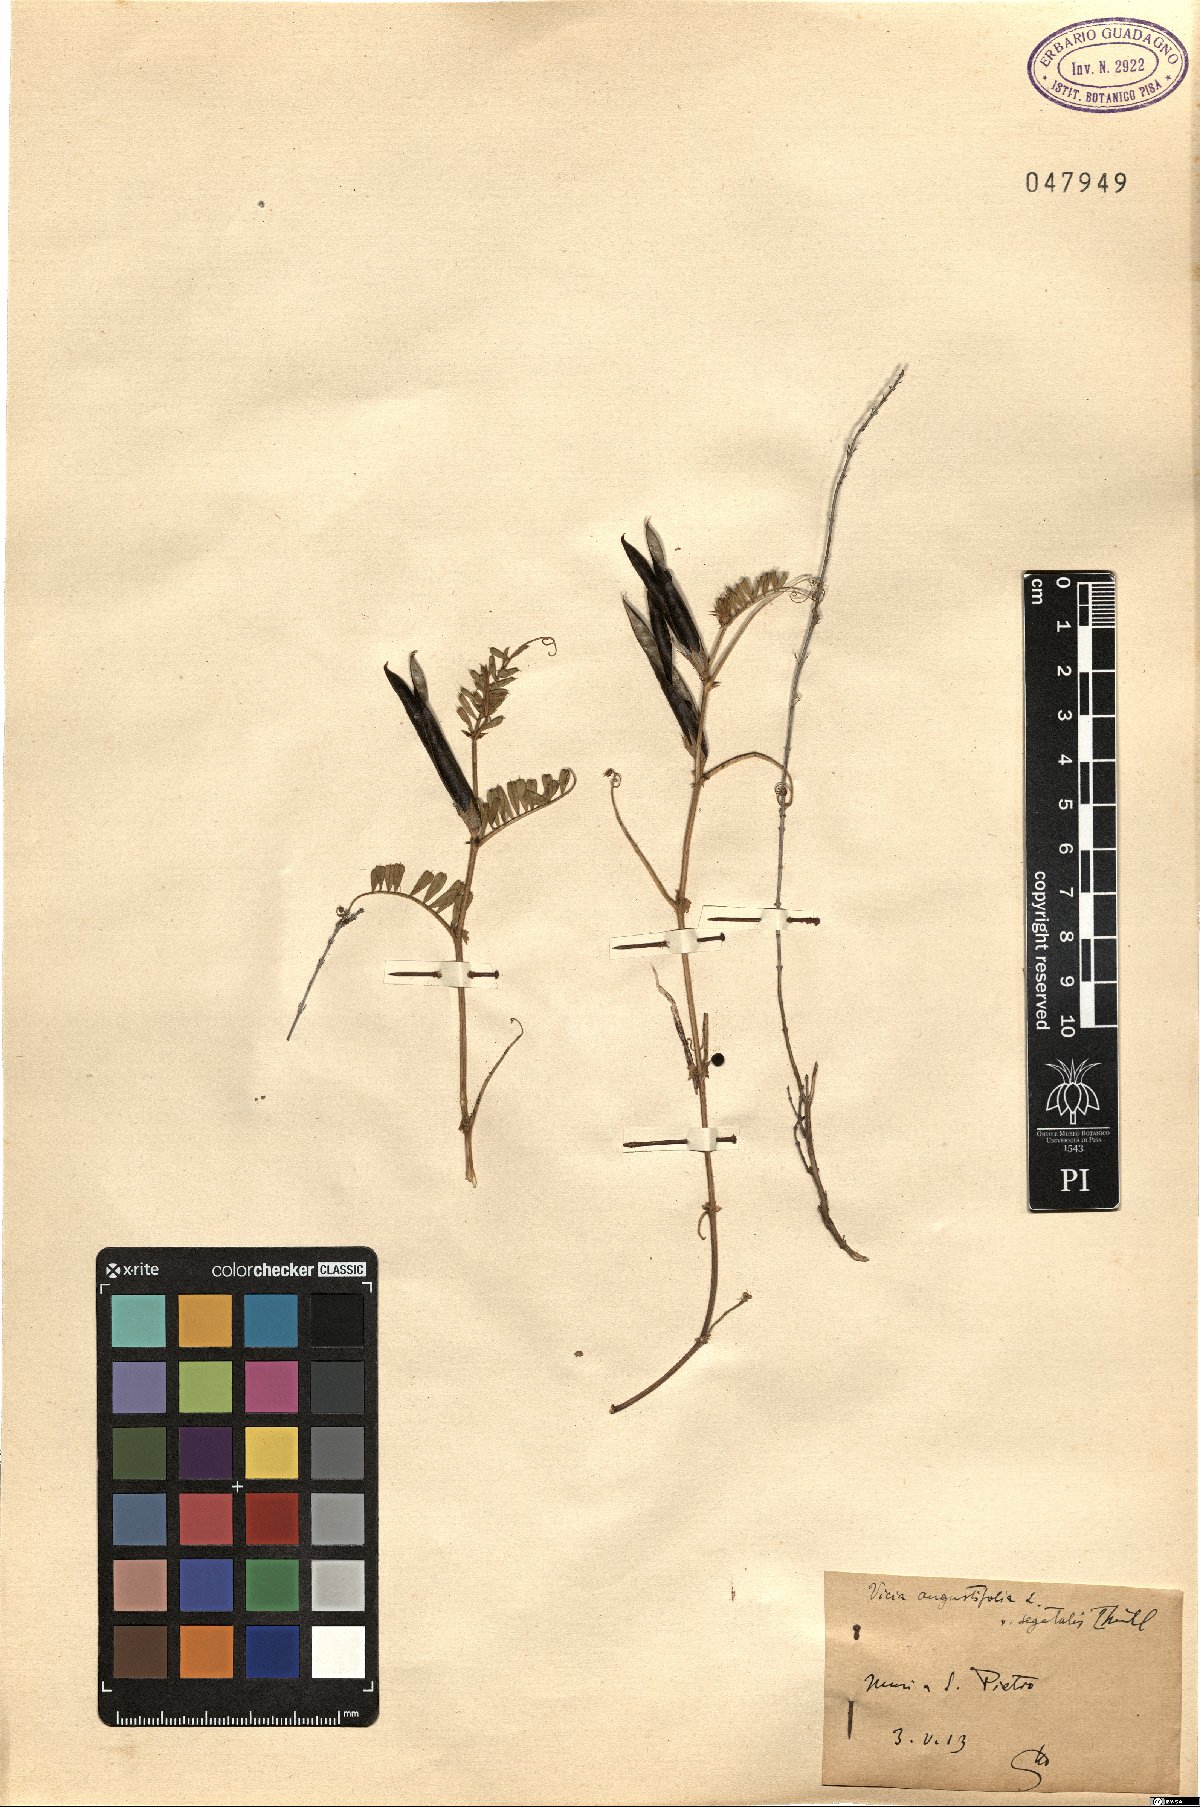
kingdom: Plantae
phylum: Tracheophyta
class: Magnoliopsida
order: Fabales
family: Fabaceae
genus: Vicia
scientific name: Vicia sativa
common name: Garden vetch
